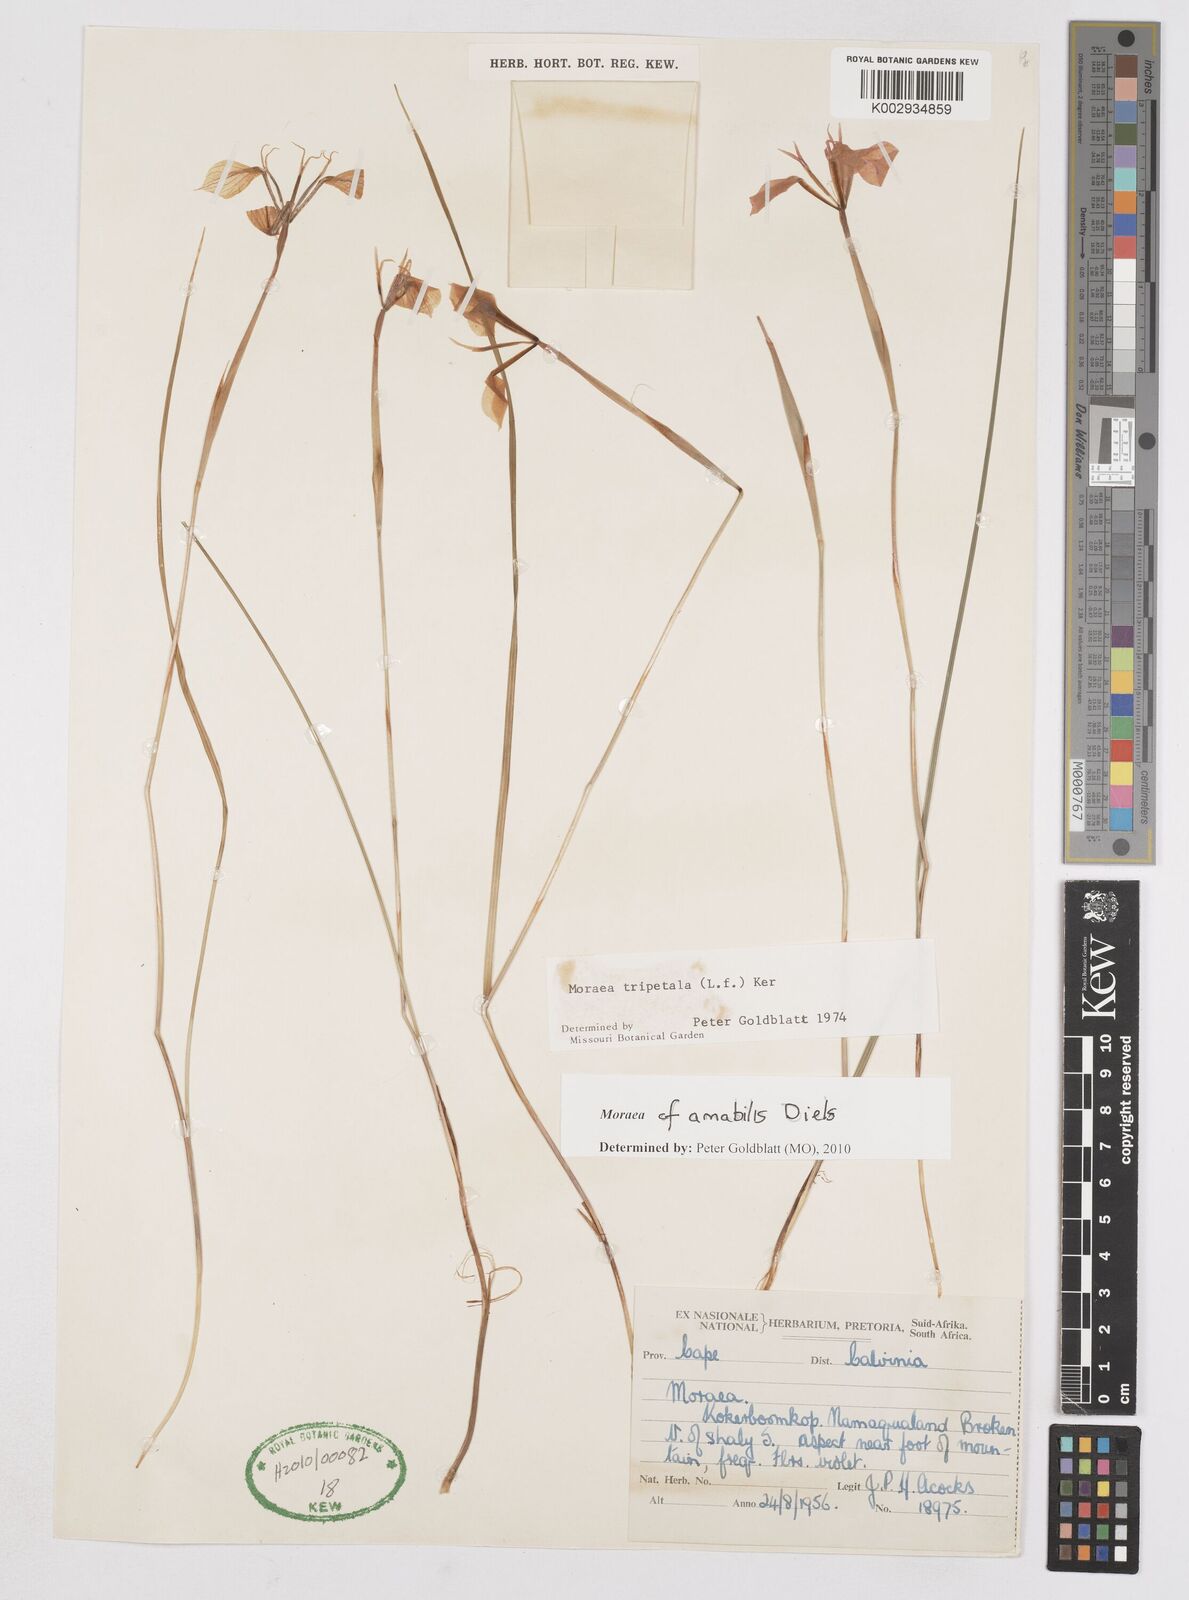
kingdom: Plantae
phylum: Tracheophyta
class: Liliopsida
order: Asparagales
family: Iridaceae
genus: Moraea
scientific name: Moraea amabilis
